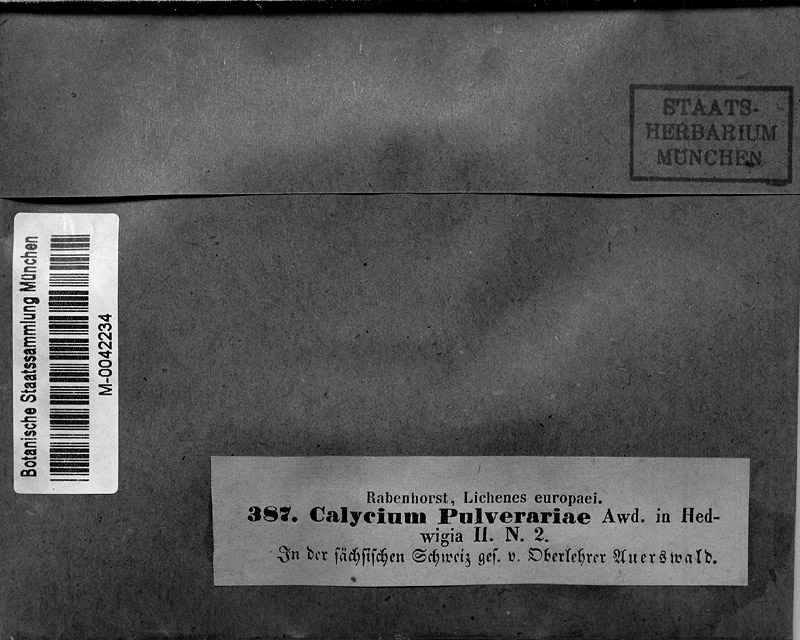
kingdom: Fungi
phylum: Ascomycota
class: Lecanoromycetes
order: Pertusariales
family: Microcaliciaceae
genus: Microcalicium
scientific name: Microcalicium arenarium
